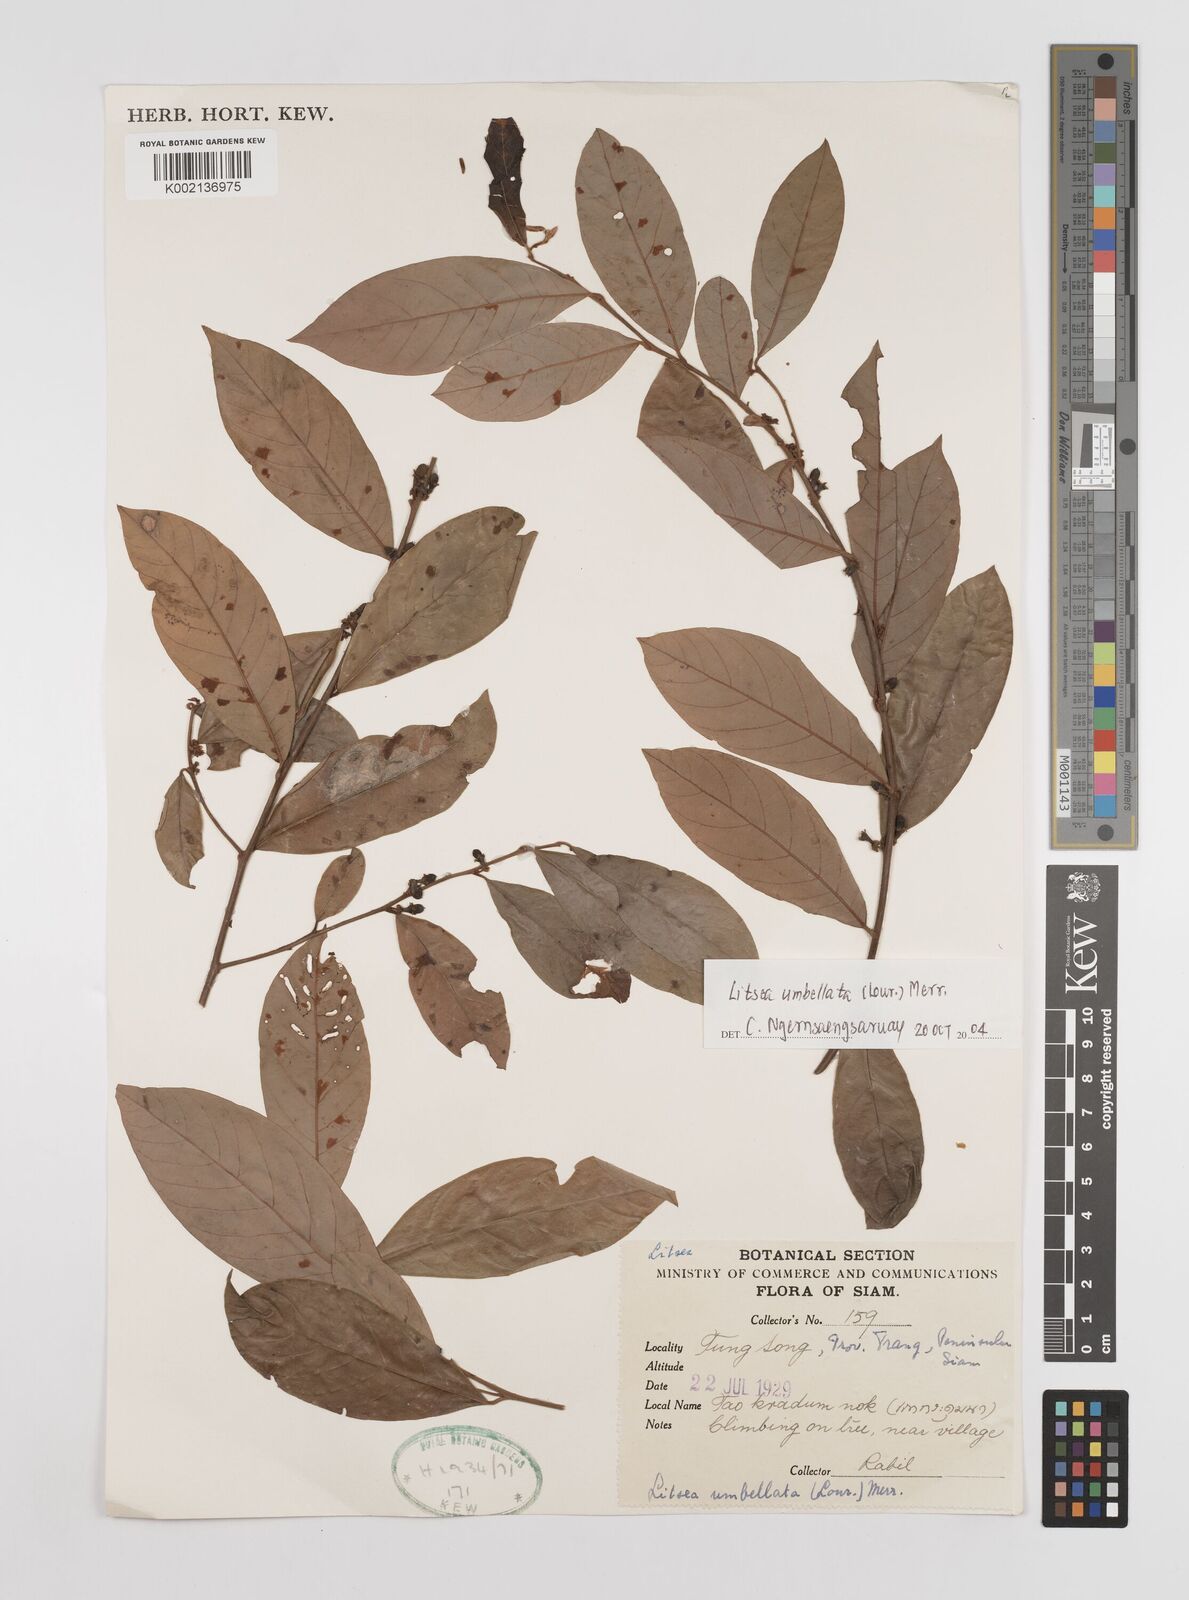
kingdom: Plantae
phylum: Tracheophyta
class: Magnoliopsida
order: Laurales
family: Lauraceae
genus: Litsea
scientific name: Litsea umbellata
